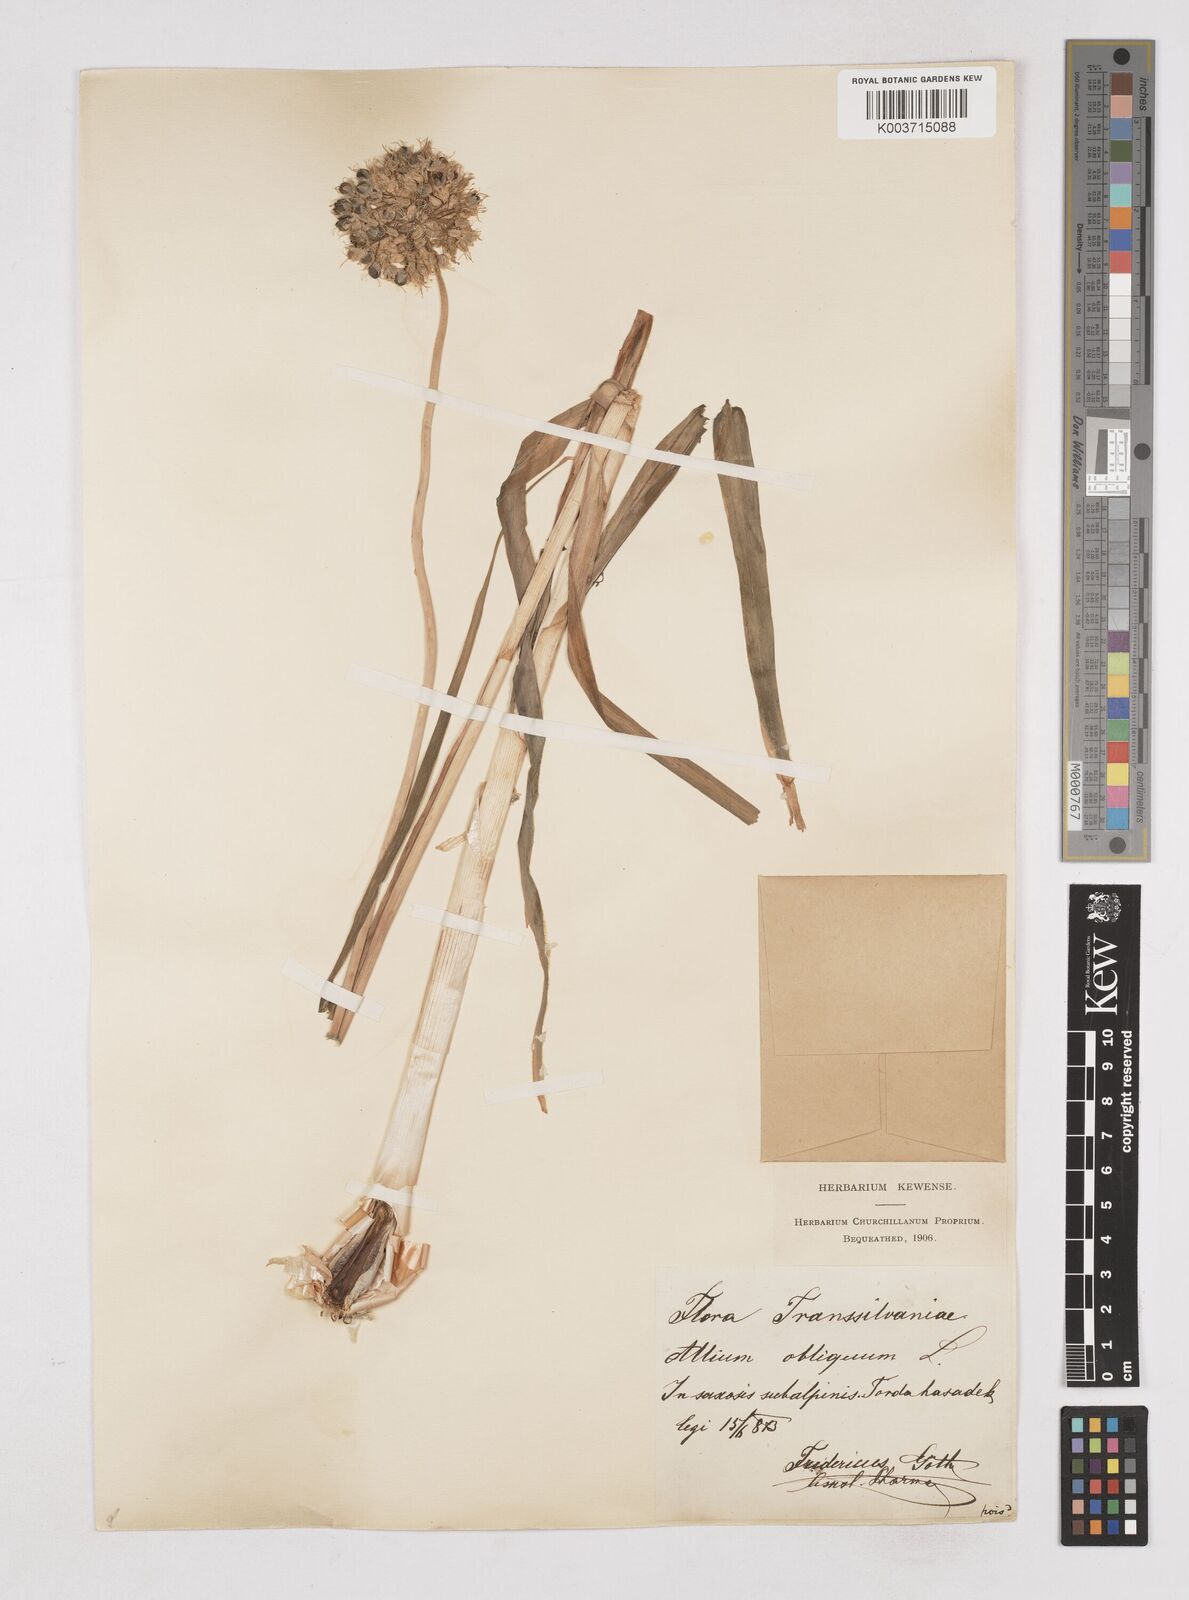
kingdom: Plantae
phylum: Tracheophyta
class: Liliopsida
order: Asparagales
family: Amaryllidaceae
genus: Allium
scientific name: Allium obliquum
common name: Oblique onion
